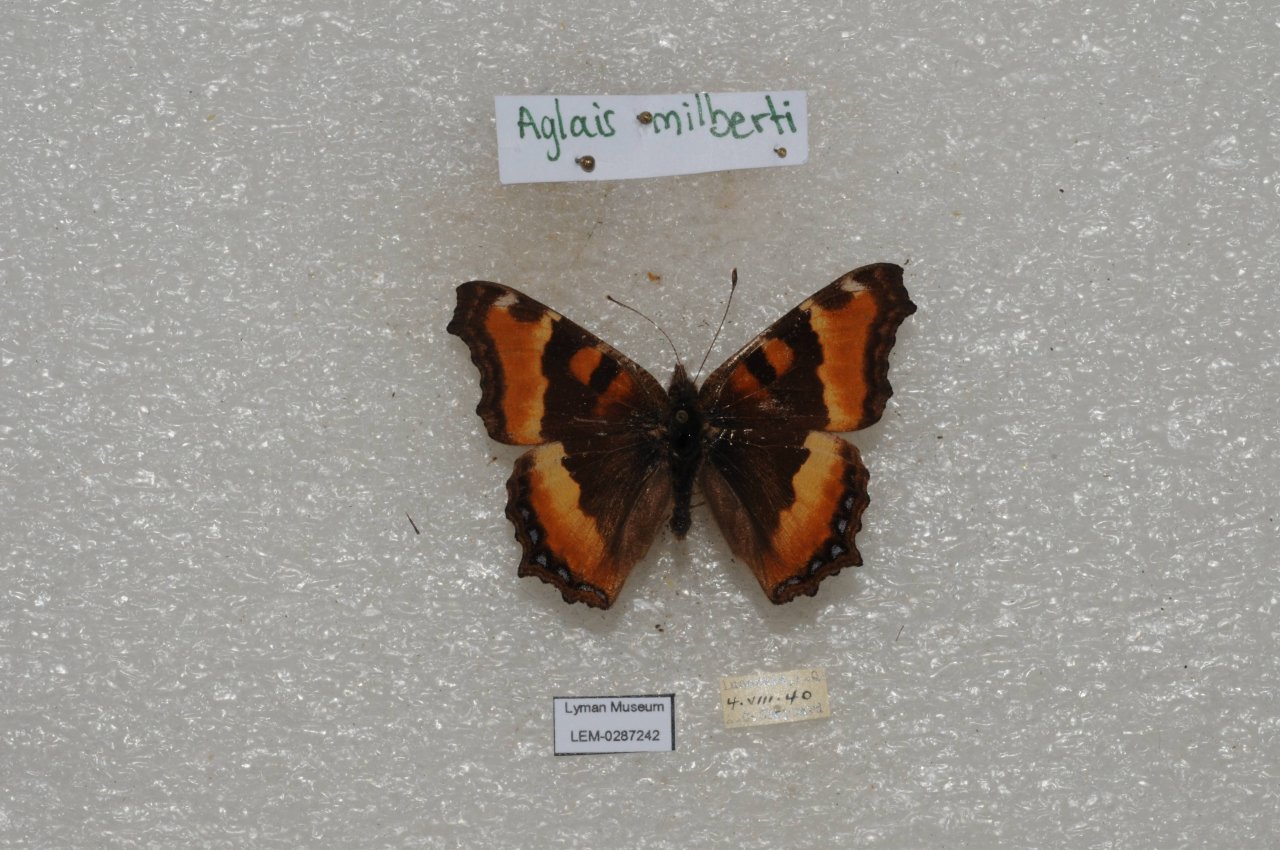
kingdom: Animalia
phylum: Arthropoda
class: Insecta
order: Lepidoptera
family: Nymphalidae
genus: Aglais
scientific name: Aglais milberti
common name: Milbert's Tortoiseshell
